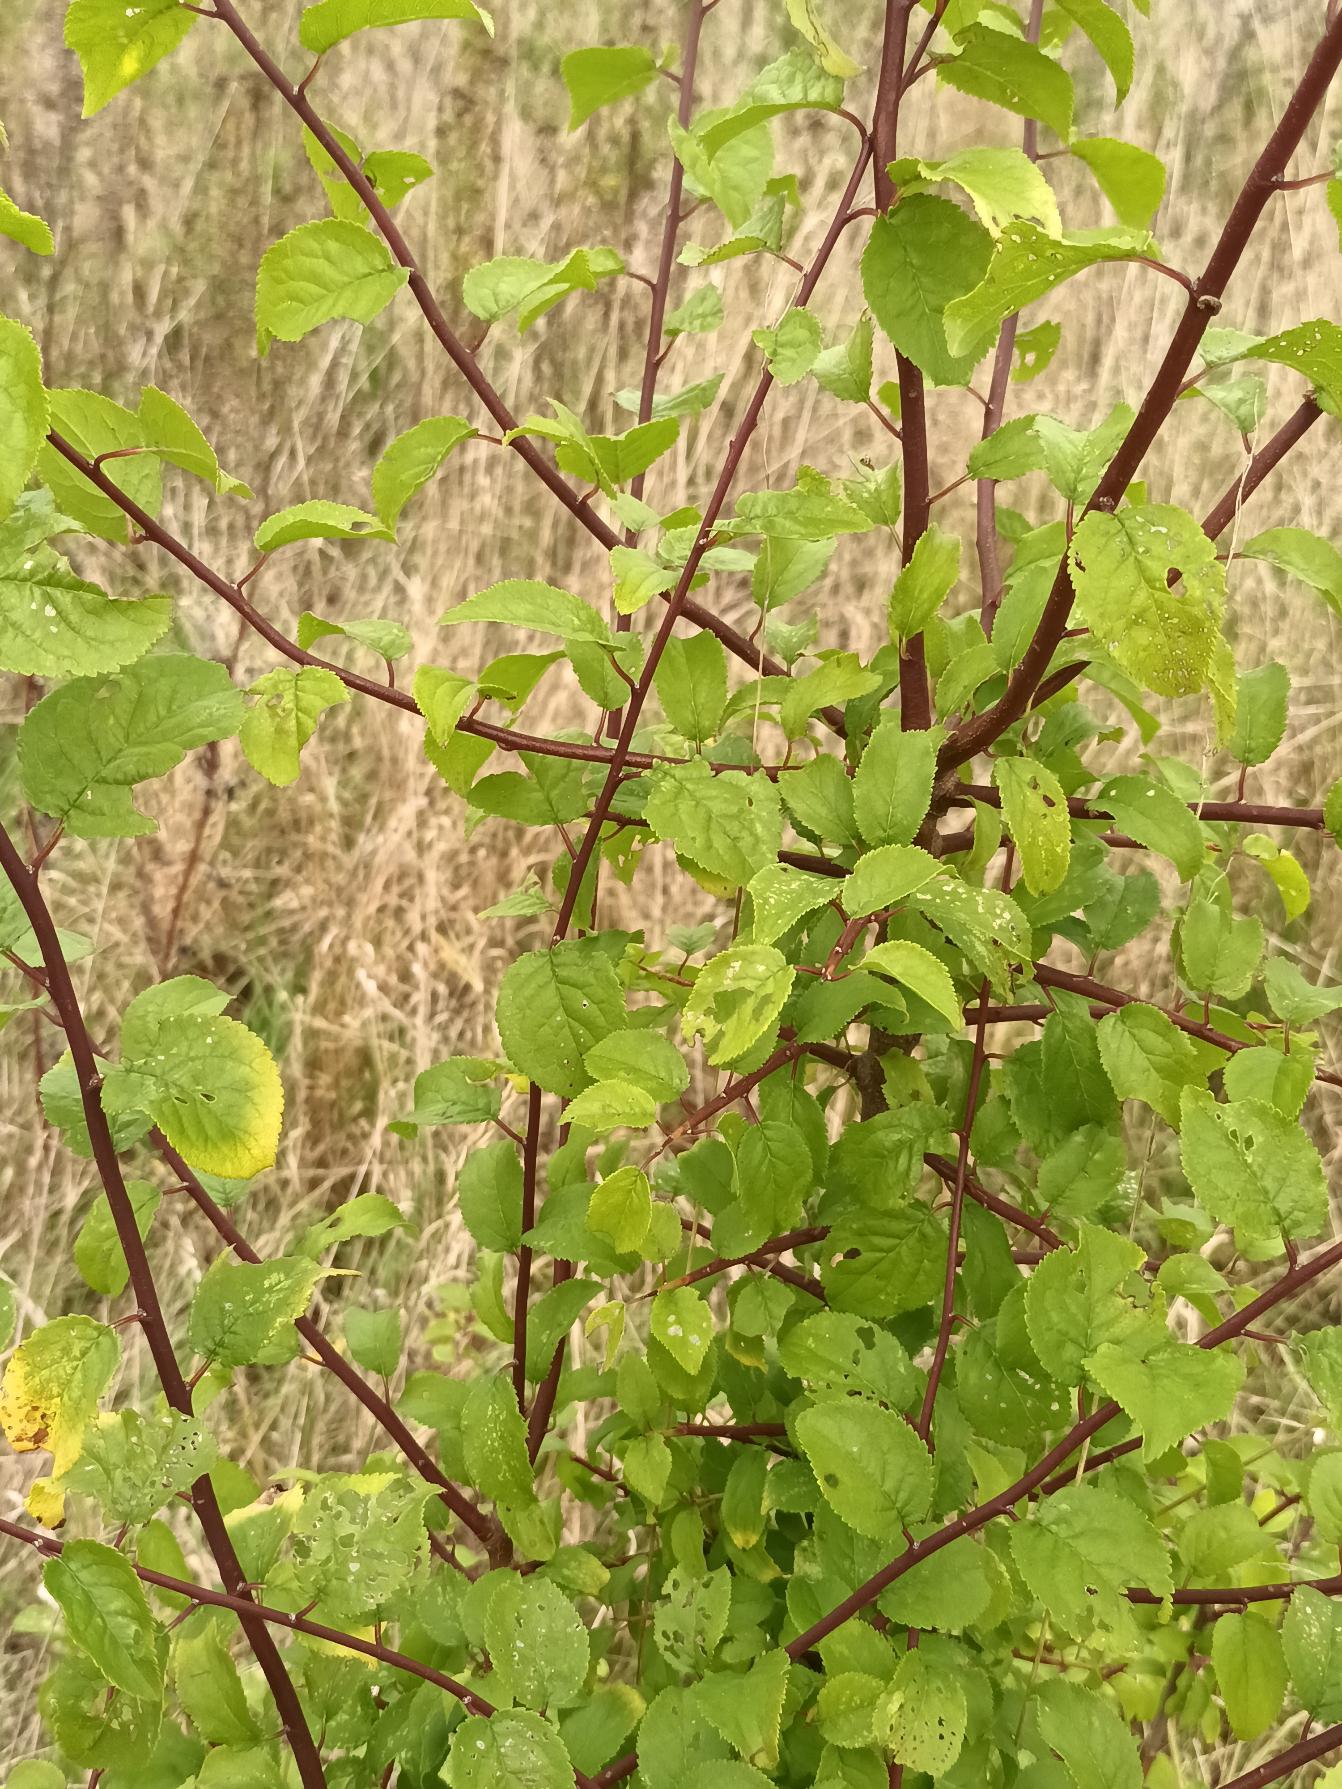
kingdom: Plantae
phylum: Tracheophyta
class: Magnoliopsida
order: Rosales
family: Rosaceae
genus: Prunus
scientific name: Prunus cerasifera
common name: Mirabel
